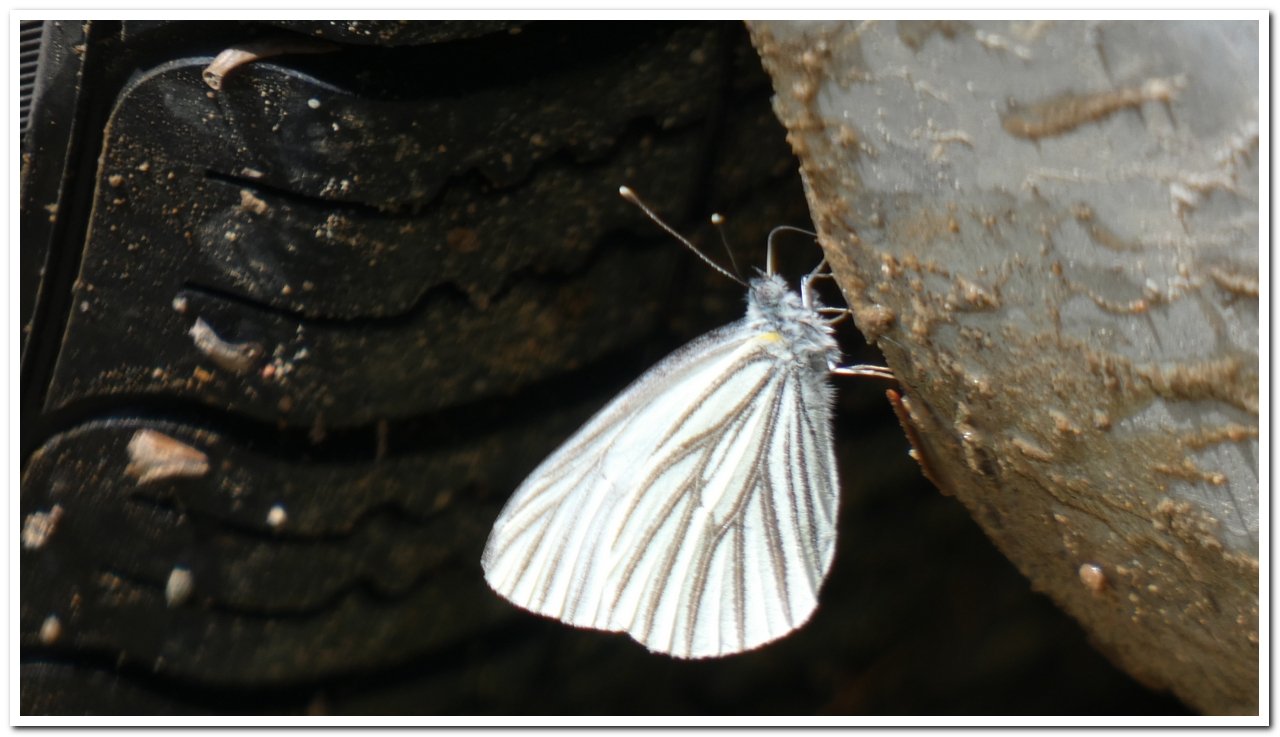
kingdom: Animalia
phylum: Arthropoda
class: Insecta
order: Lepidoptera
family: Pieridae
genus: Pieris
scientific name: Pieris oleracea
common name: Mustard White
